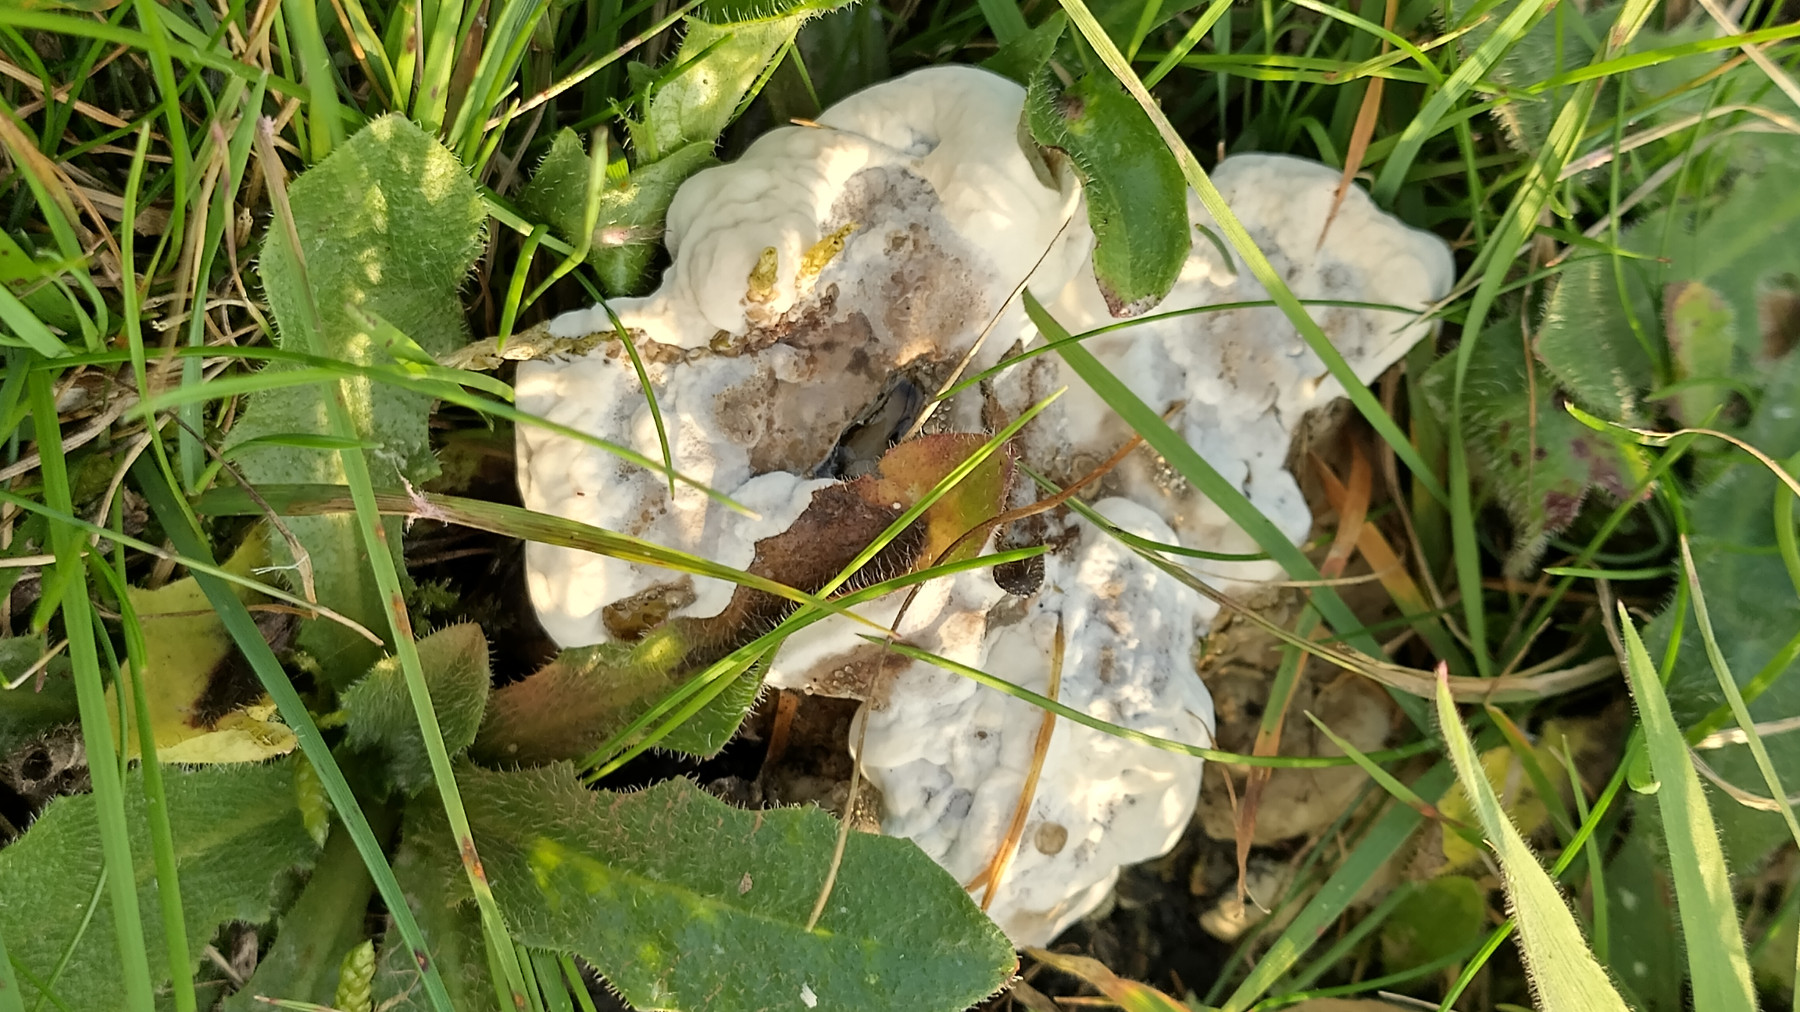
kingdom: Fungi
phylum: Basidiomycota
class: Agaricomycetes
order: Polyporales
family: Polyporaceae
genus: Ganoderma
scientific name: Ganoderma
